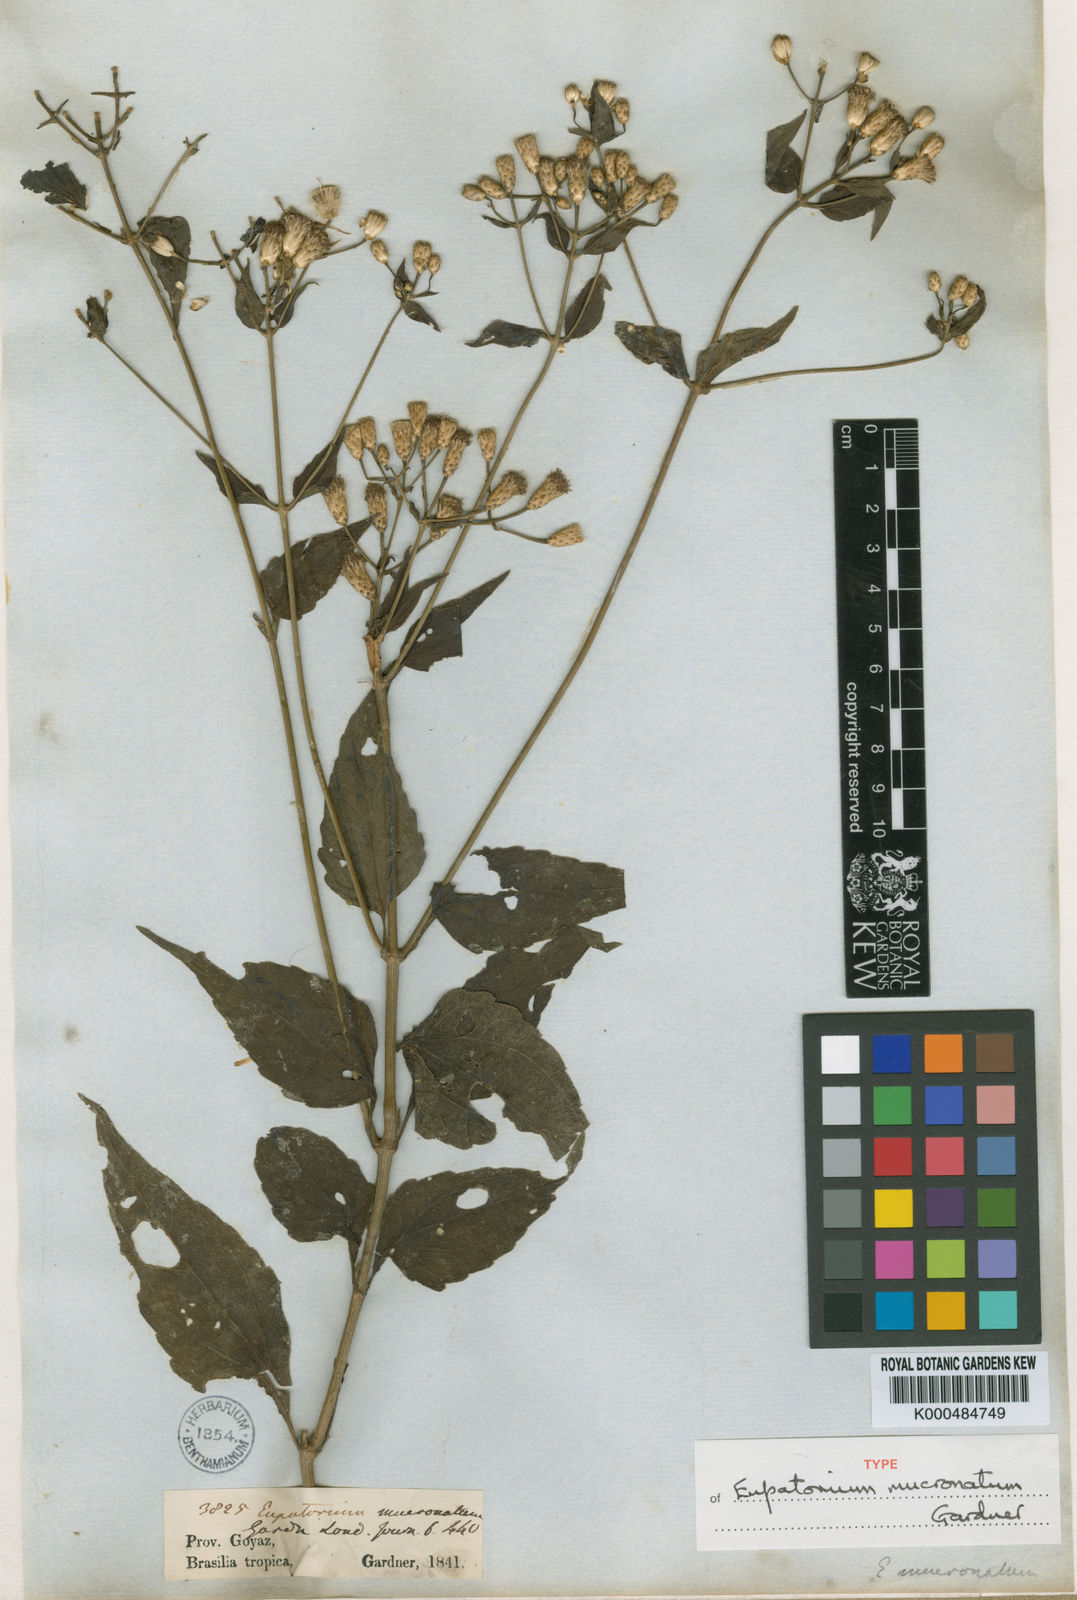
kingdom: Plantae
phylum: Tracheophyta
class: Magnoliopsida
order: Asterales
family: Asteraceae
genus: Chromolaena
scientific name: Chromolaena mucronata
